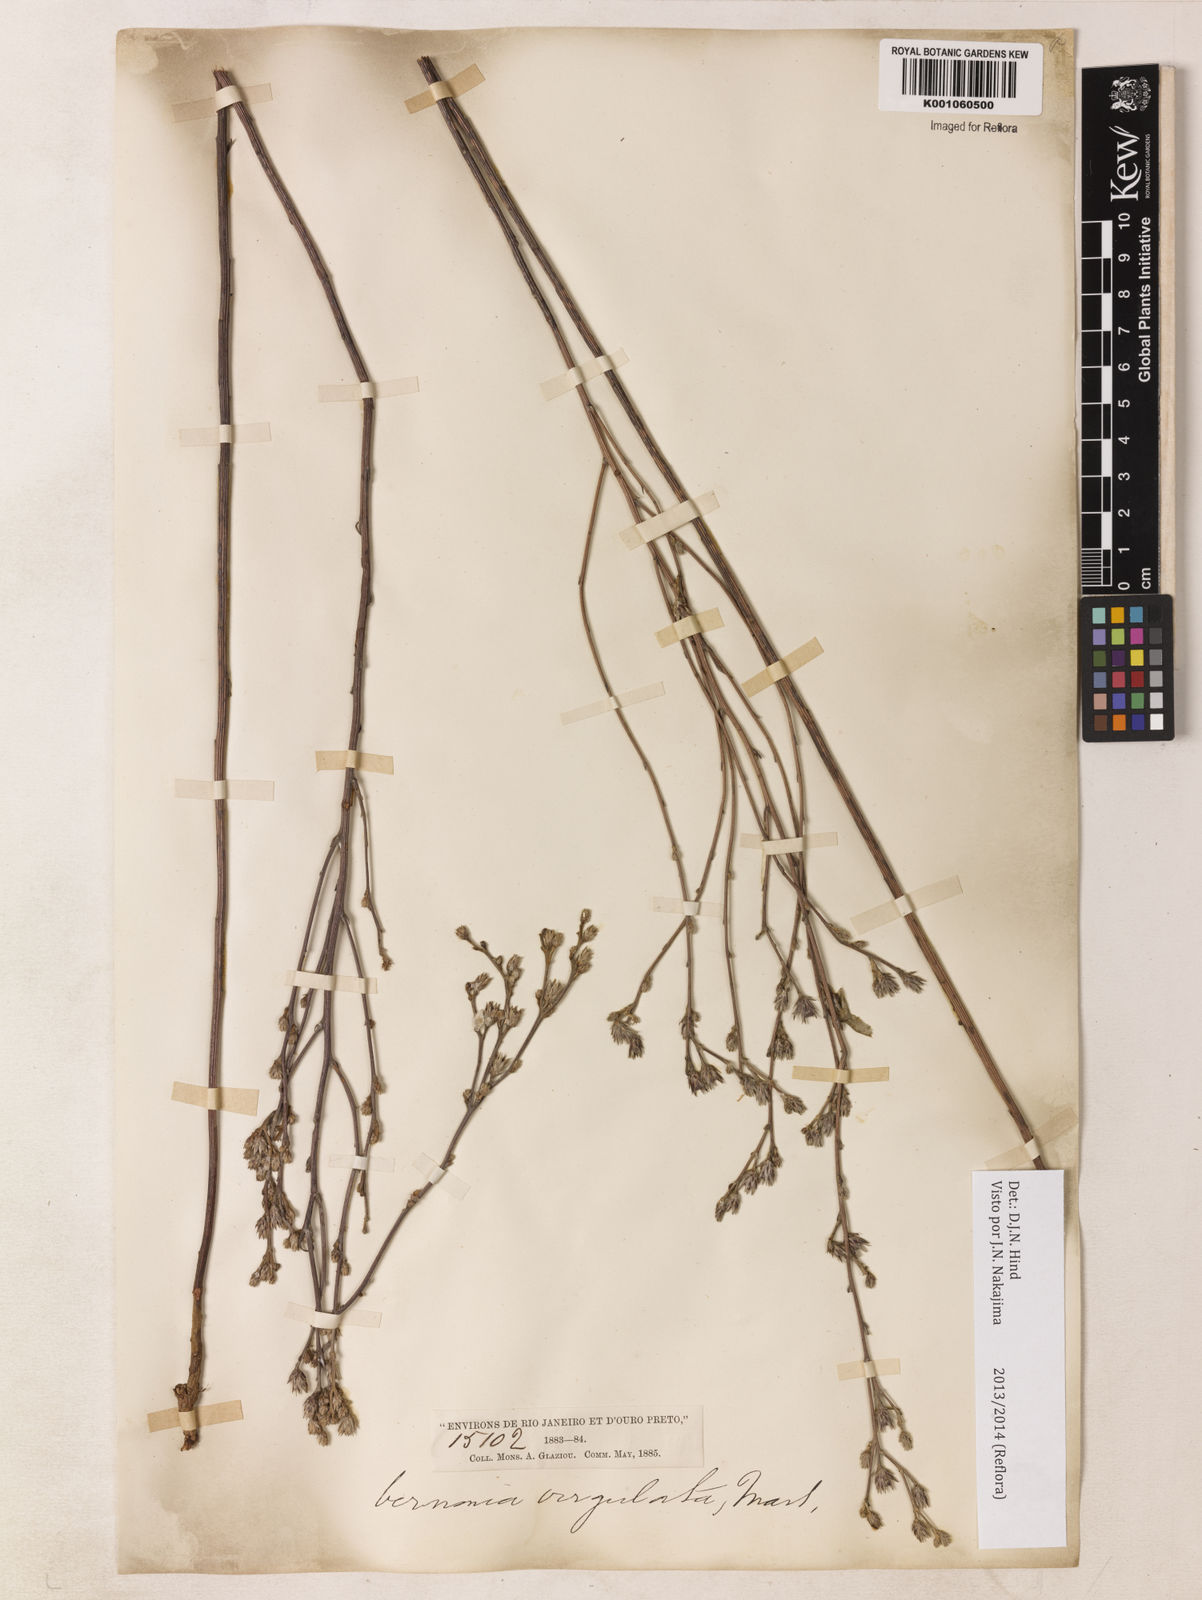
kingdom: Plantae
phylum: Tracheophyta
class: Magnoliopsida
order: Asterales
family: Asteraceae
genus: Lessingianthus
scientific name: Lessingianthus virgulatus
